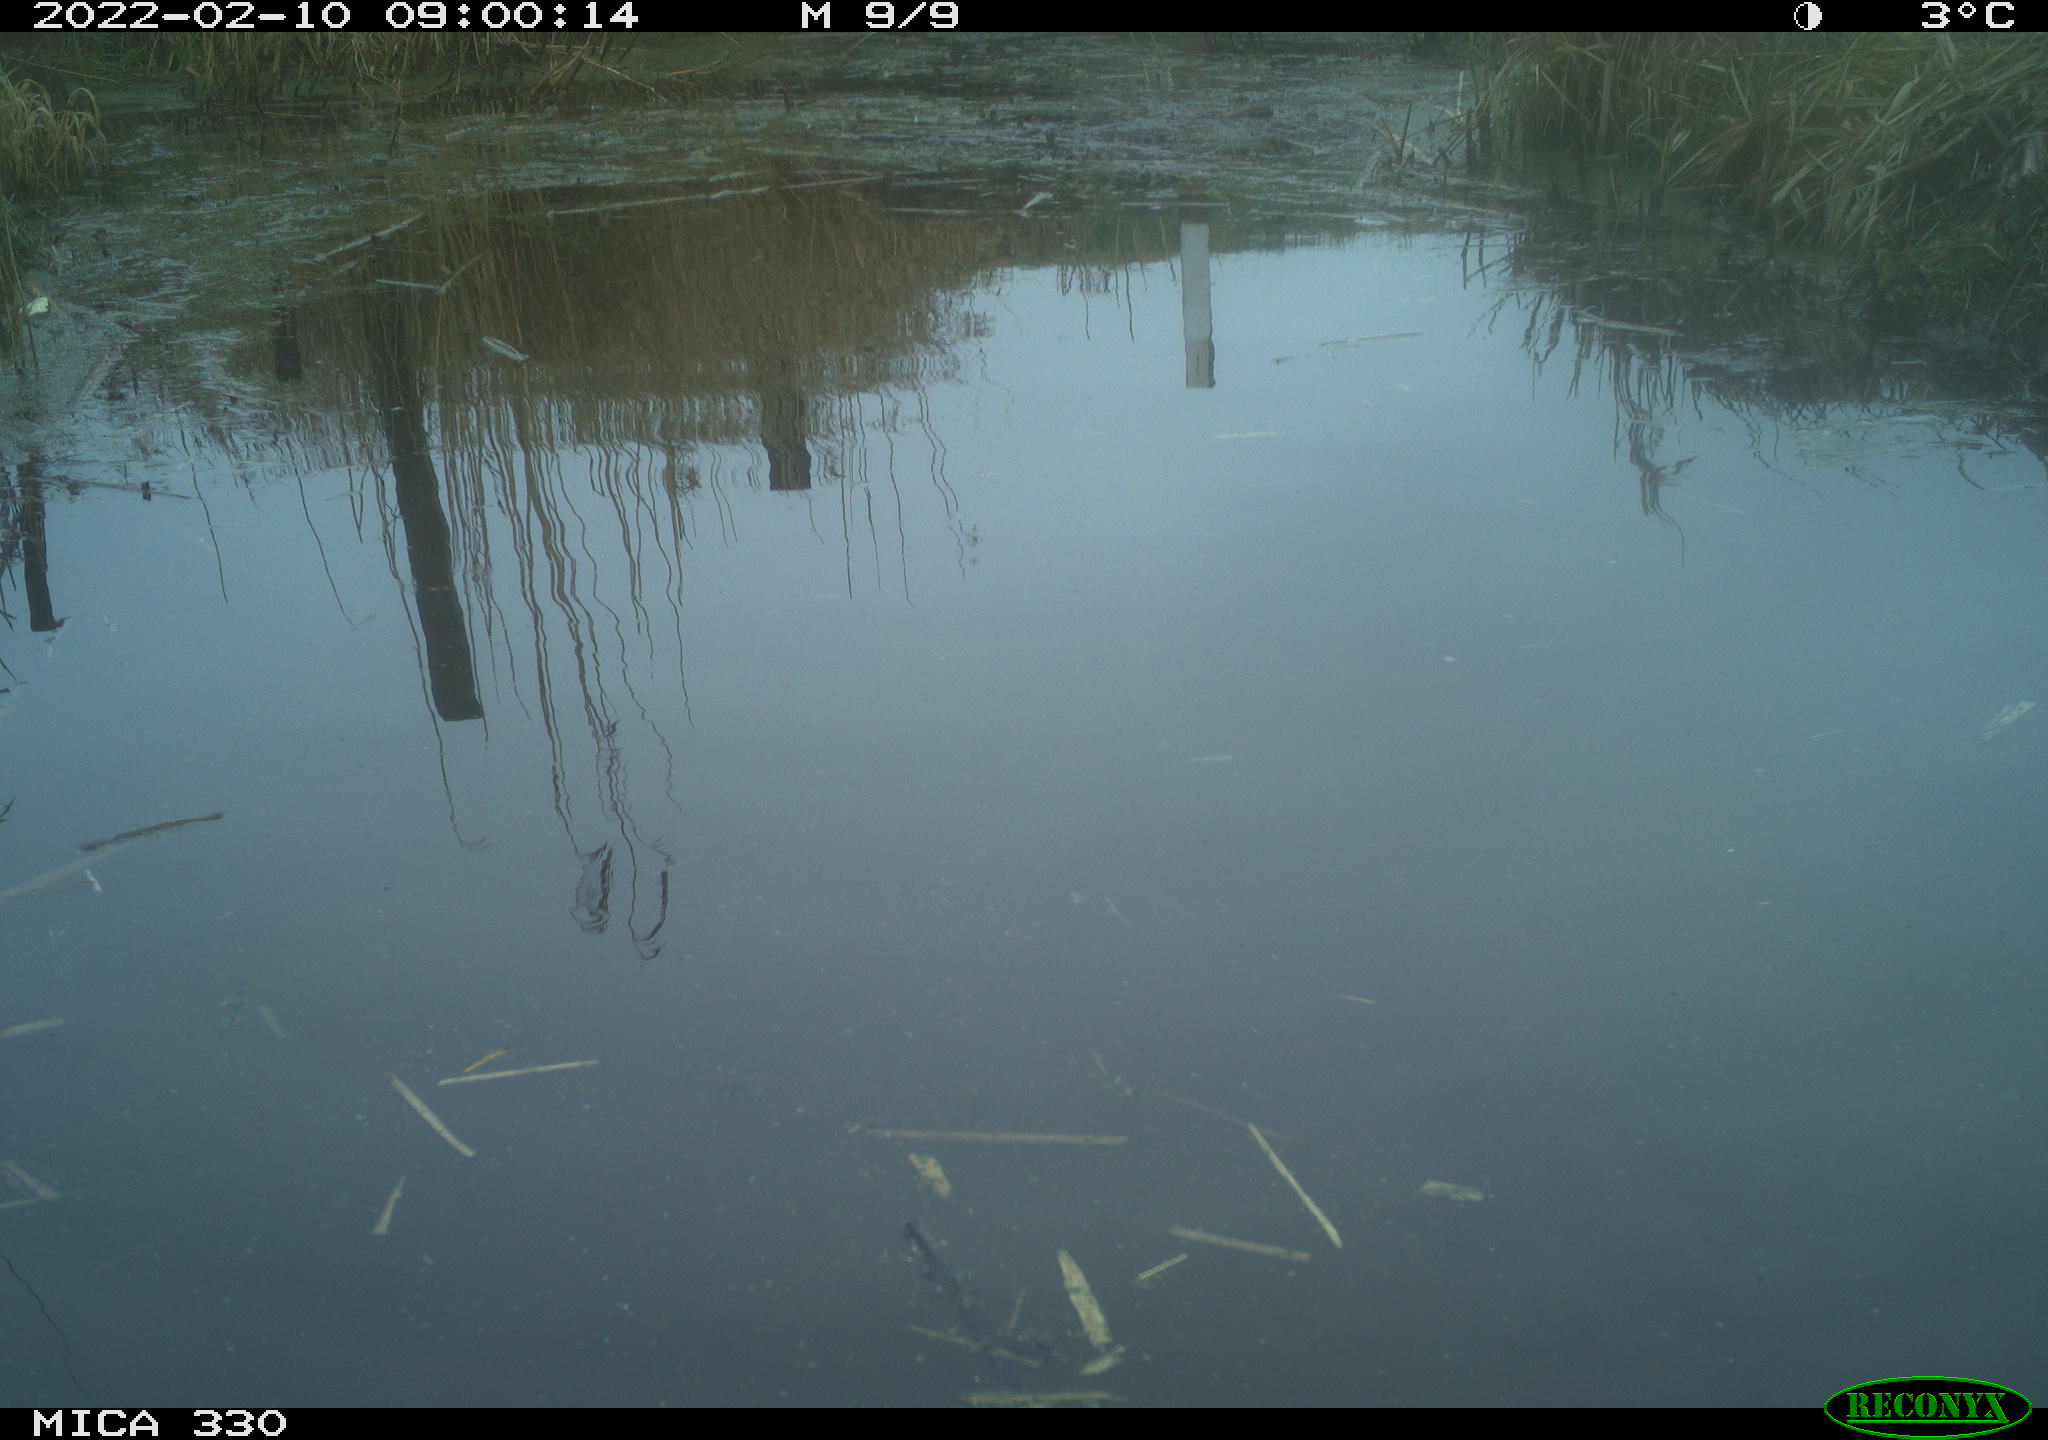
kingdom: Animalia
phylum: Chordata
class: Aves
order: Gruiformes
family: Rallidae
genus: Gallinula
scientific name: Gallinula chloropus
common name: Common moorhen
